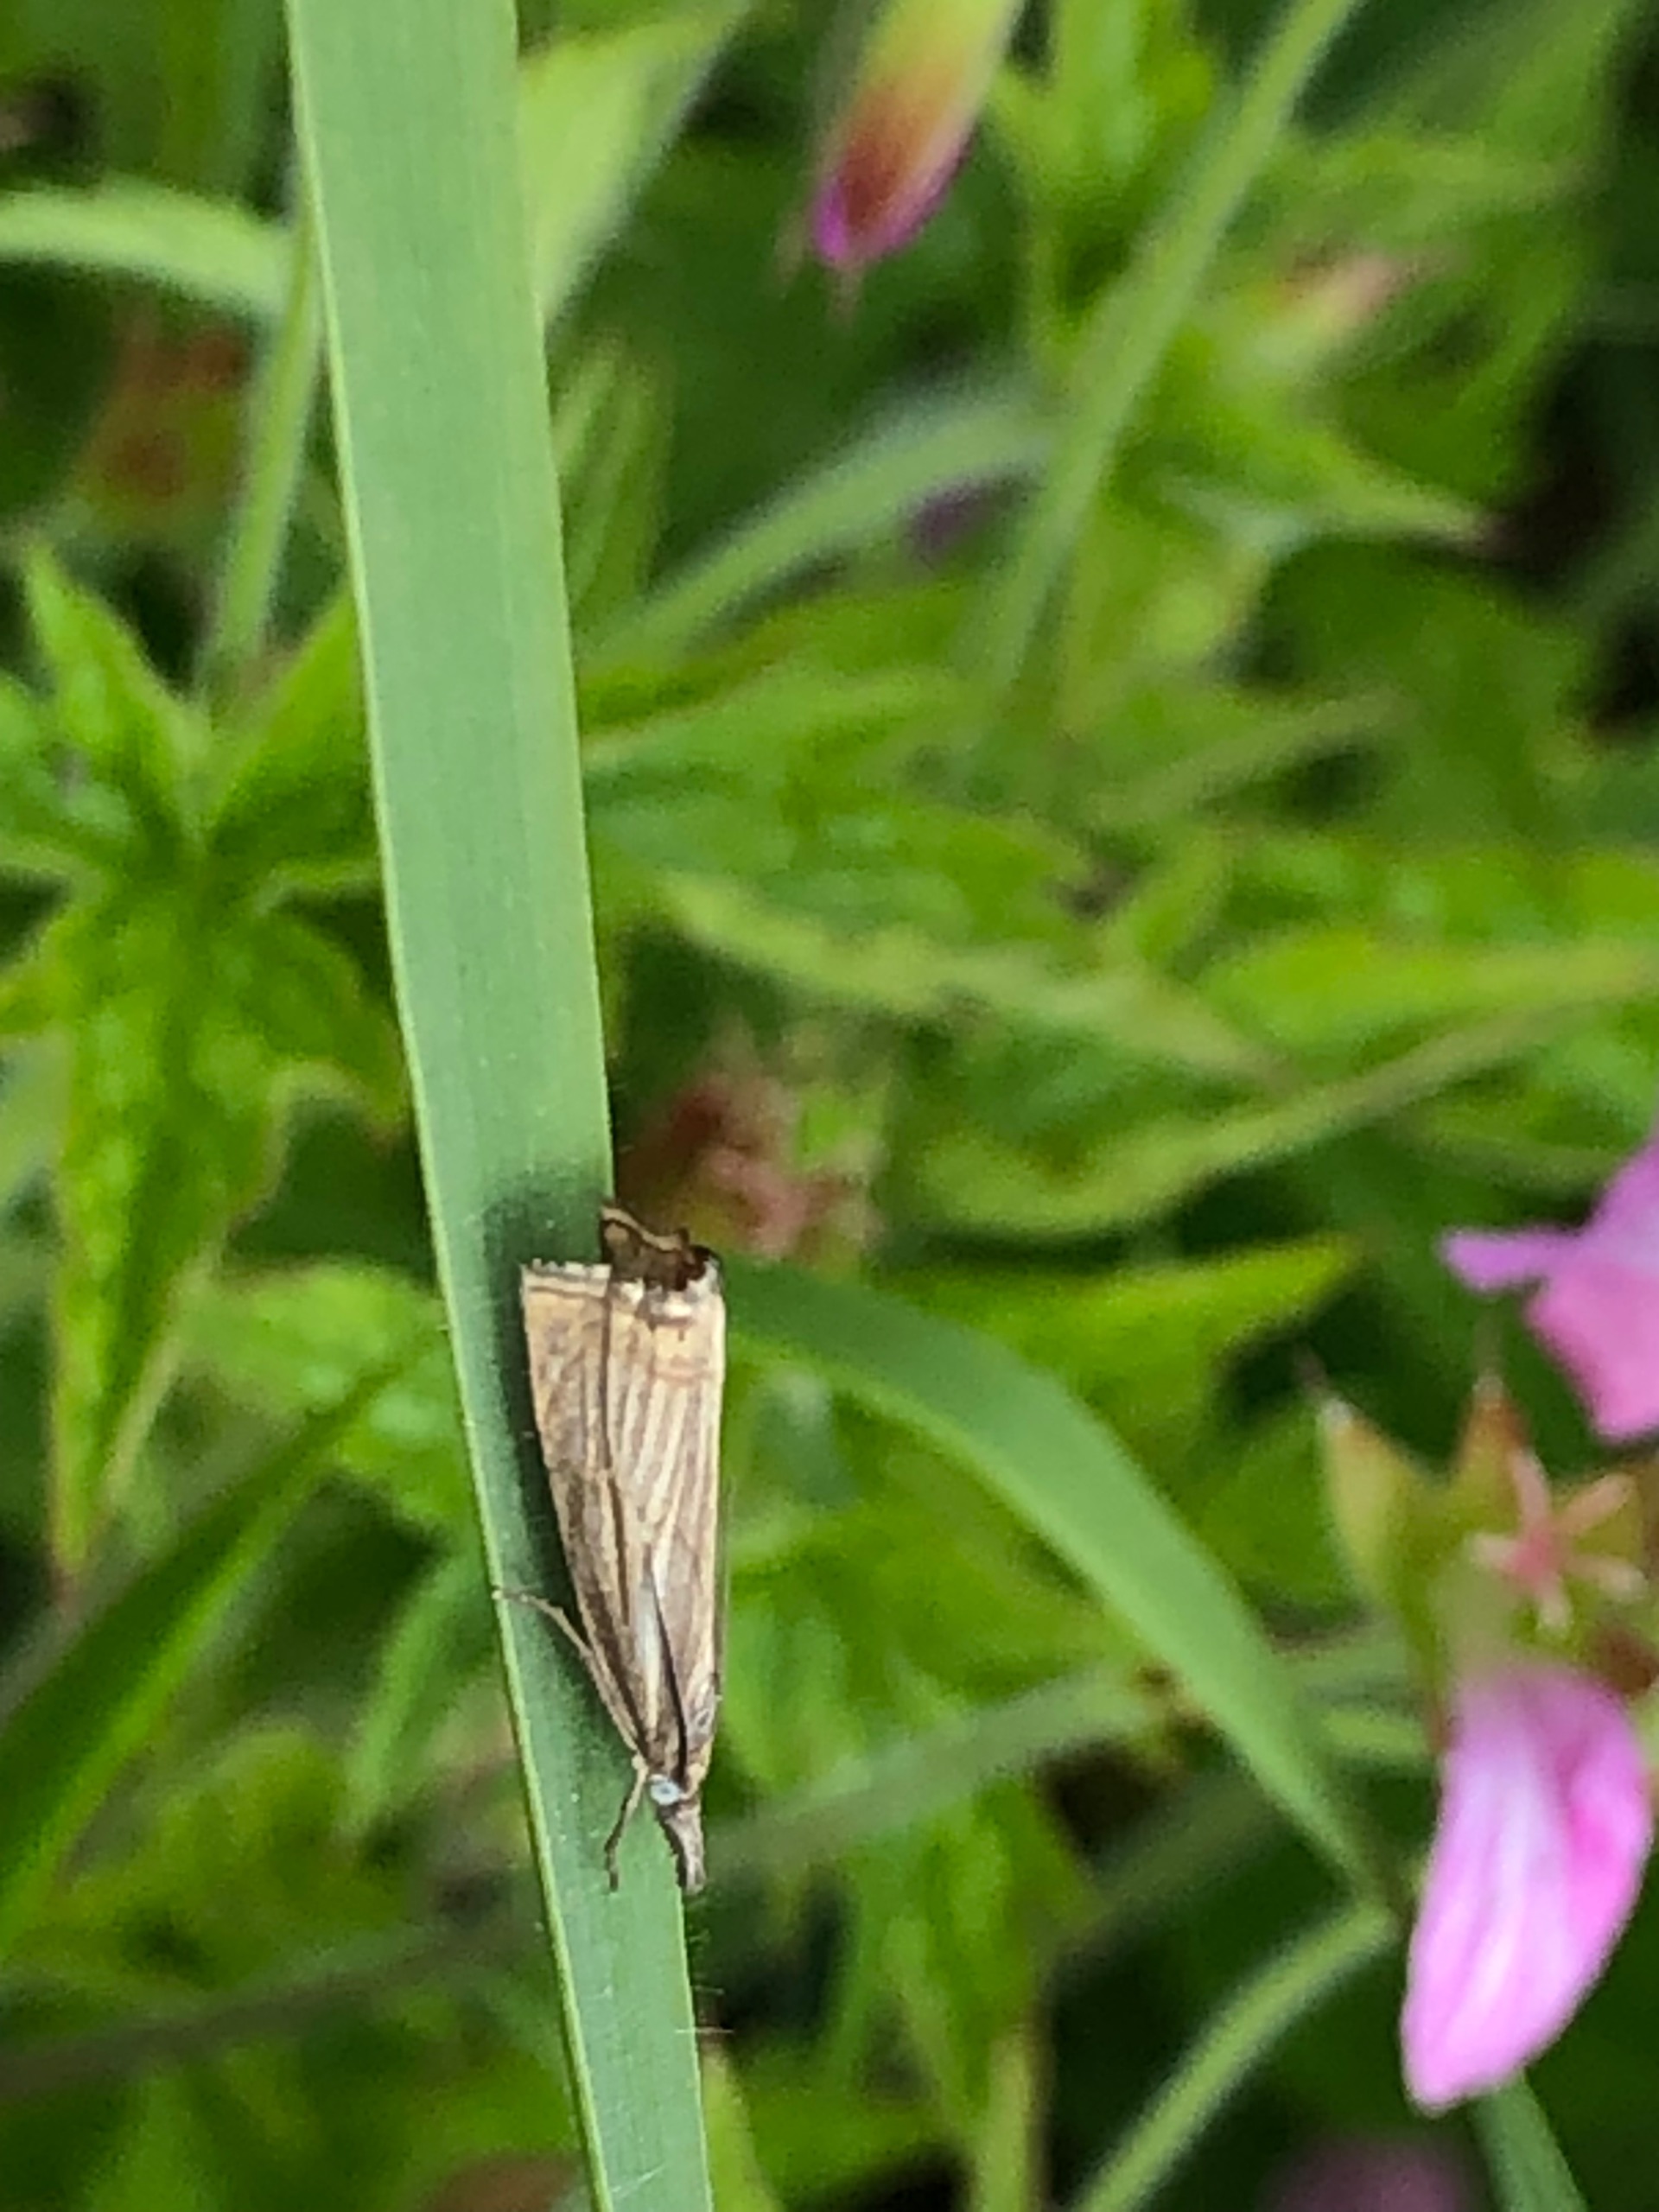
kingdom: Animalia
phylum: Arthropoda
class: Insecta
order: Lepidoptera
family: Crambidae
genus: Chrysoteuchia
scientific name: Chrysoteuchia culmella
